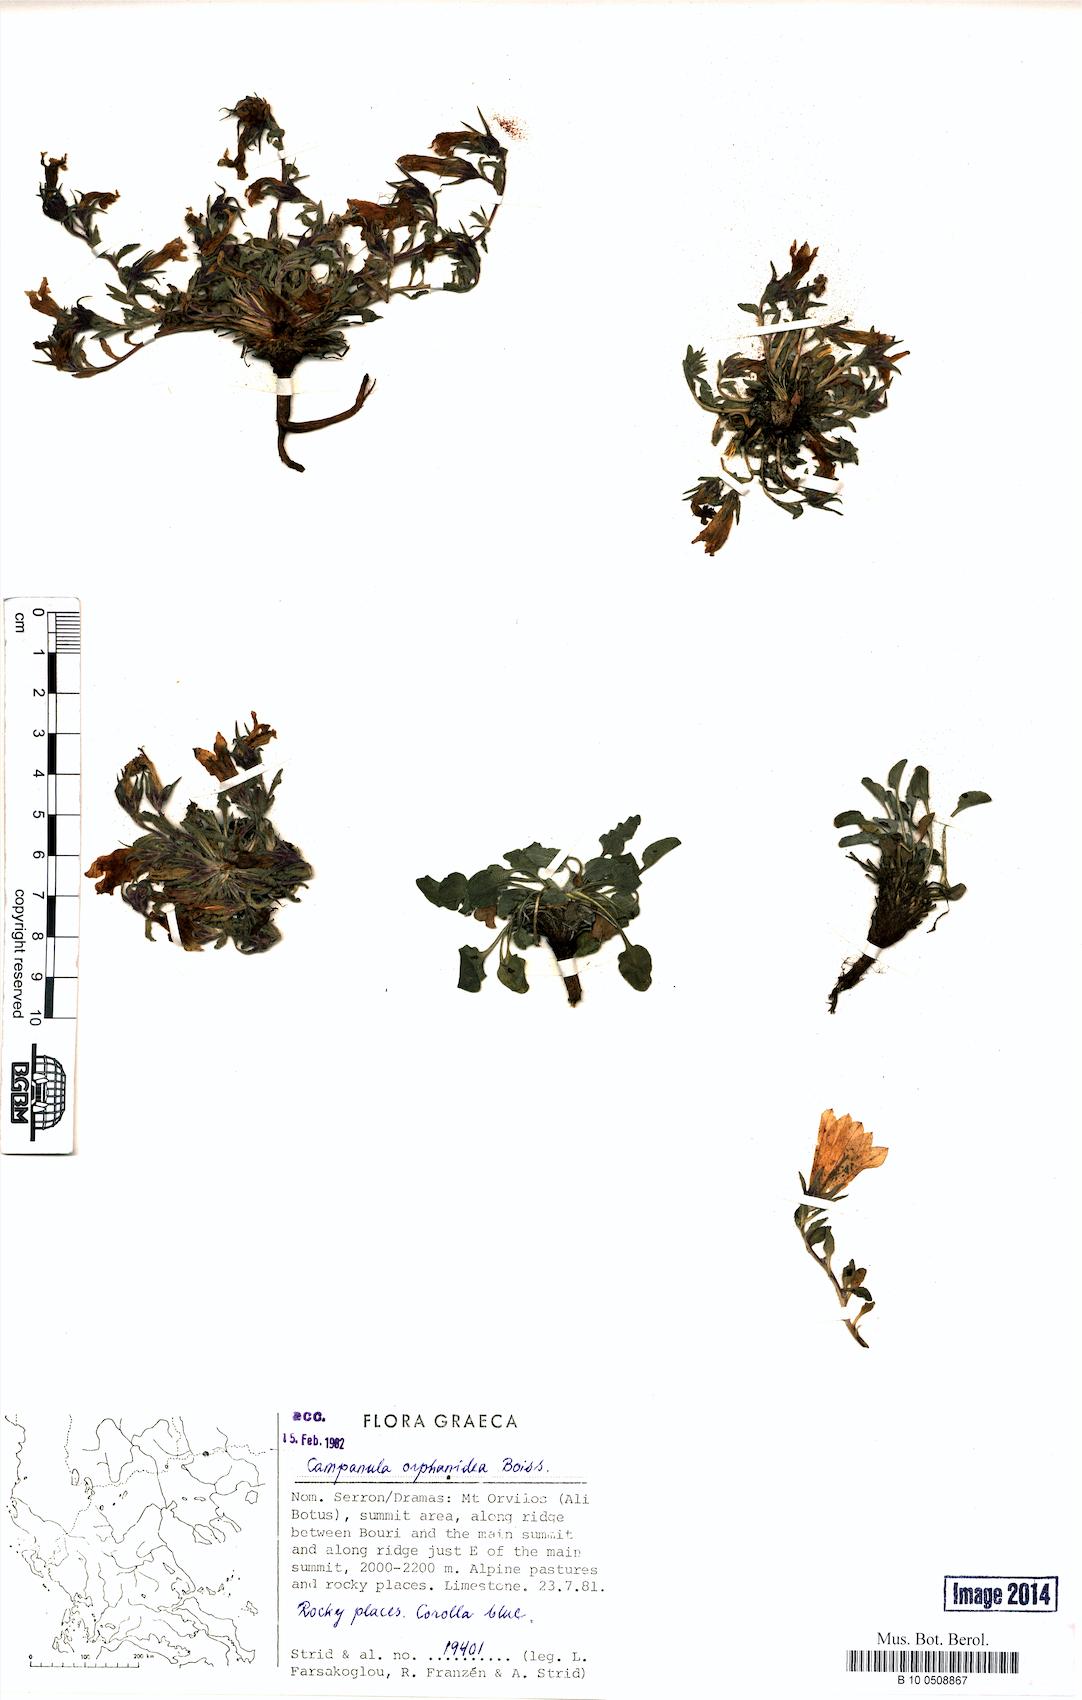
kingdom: Plantae
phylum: Tracheophyta
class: Magnoliopsida
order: Asterales
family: Campanulaceae
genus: Campanula
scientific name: Campanula orphanidea
